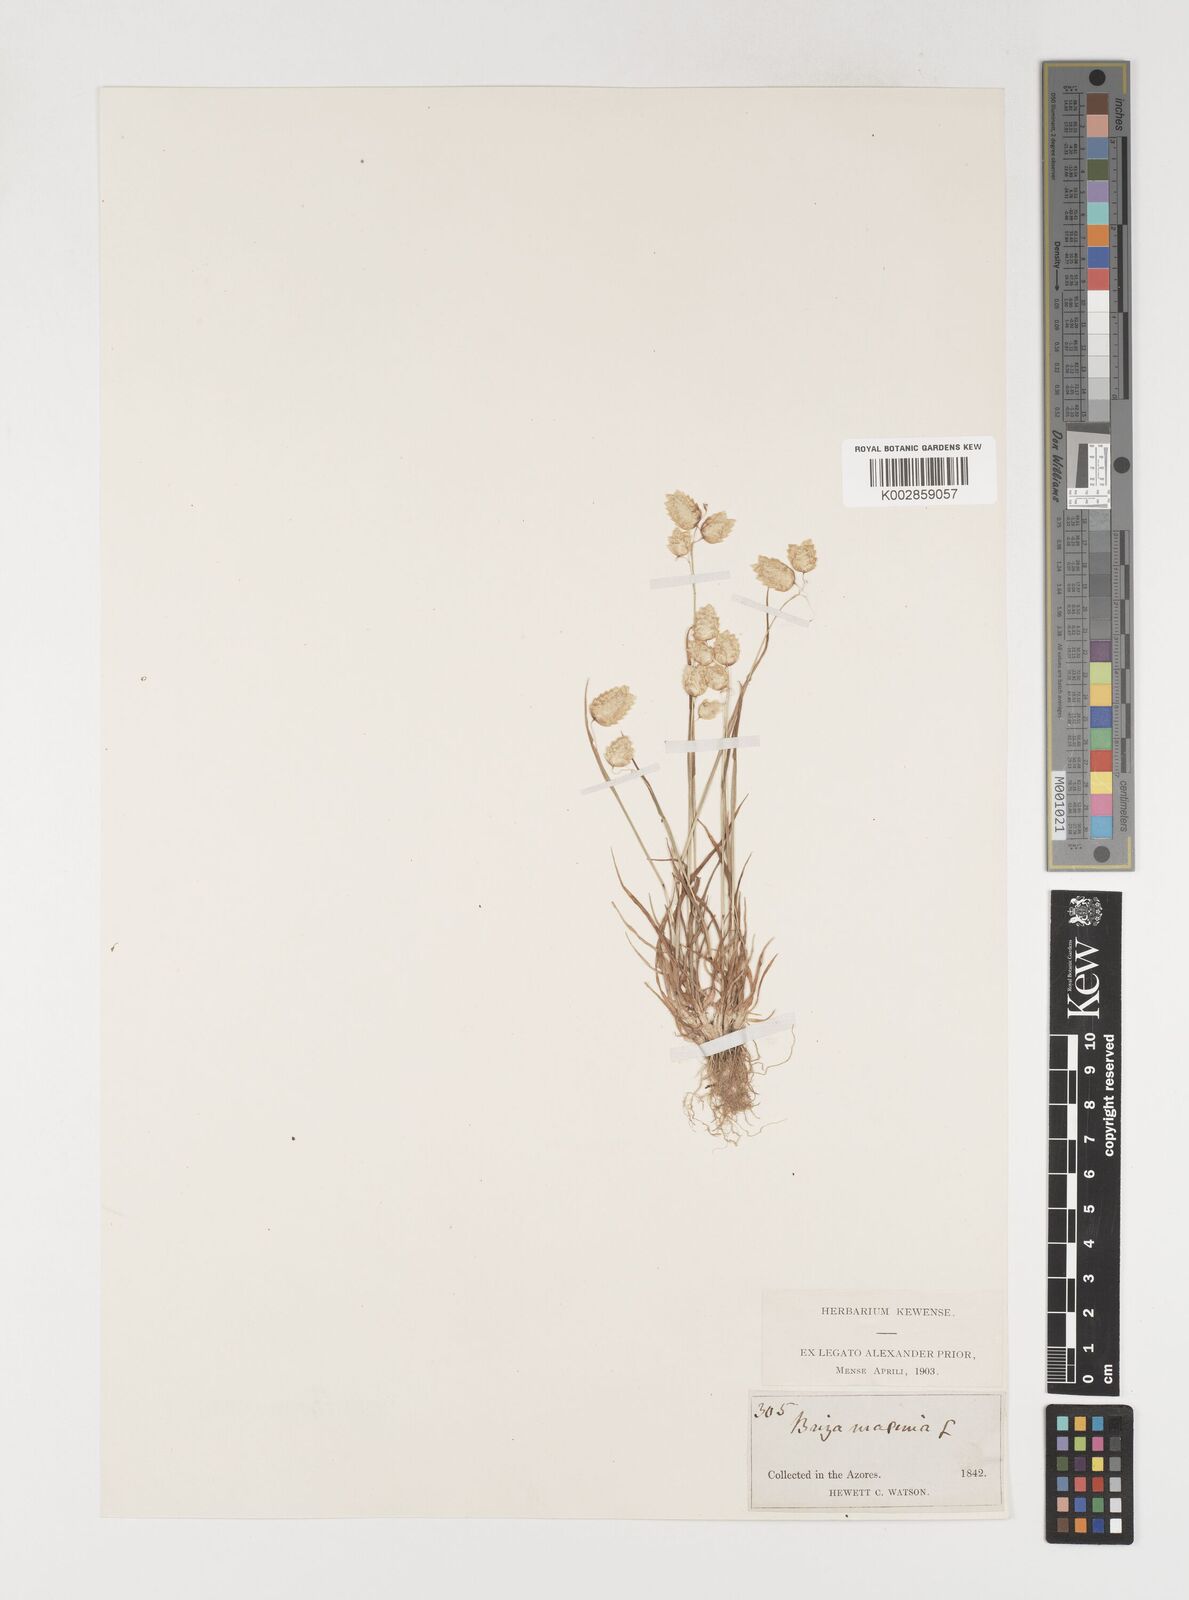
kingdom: Plantae
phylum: Tracheophyta
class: Liliopsida
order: Poales
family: Poaceae
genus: Briza
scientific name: Briza maxima
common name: Big quakinggrass
